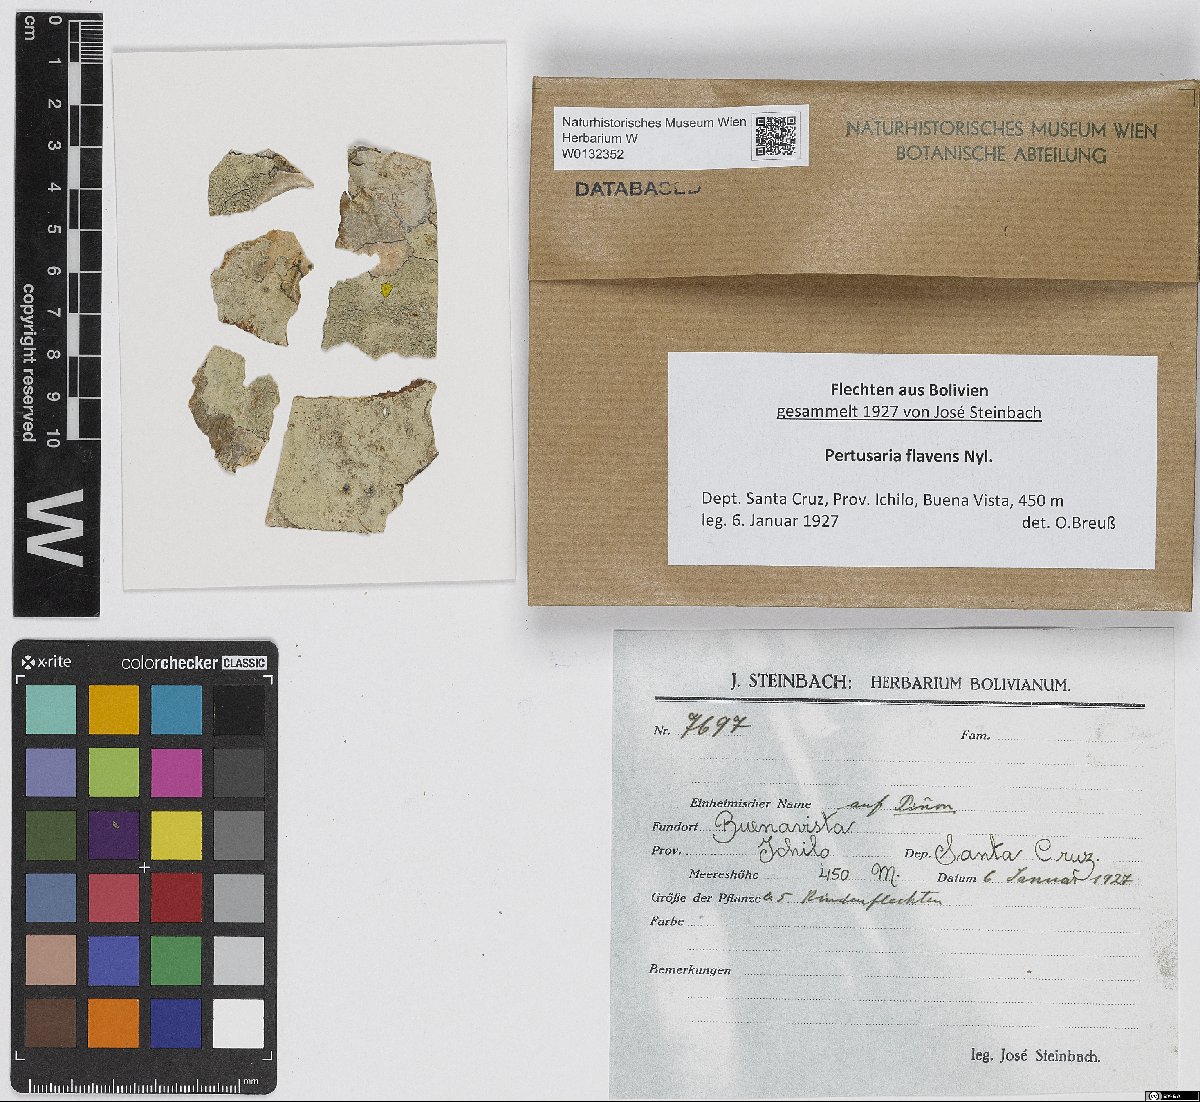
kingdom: Fungi
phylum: Ascomycota
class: Lecanoromycetes
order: Pertusariales
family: Pertusariaceae
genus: Pertusaria
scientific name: Pertusaria flavens
